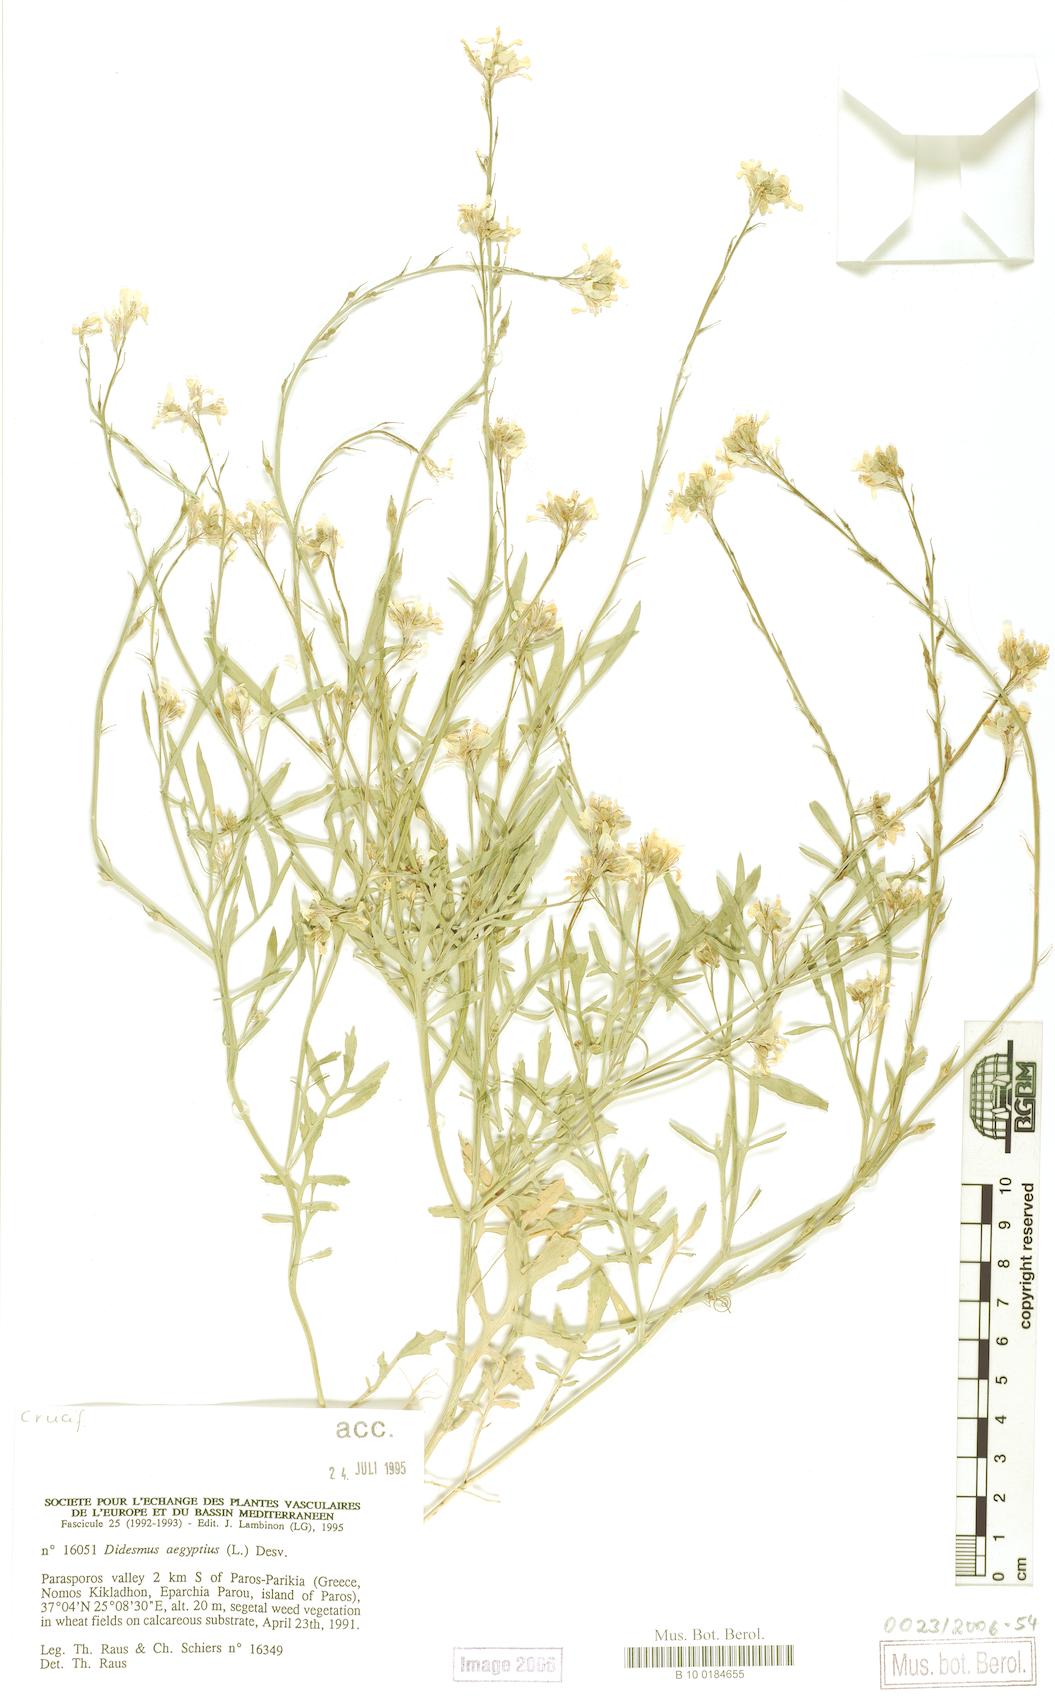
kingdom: Plantae
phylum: Tracheophyta
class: Magnoliopsida
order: Brassicales
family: Brassicaceae
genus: Didesmus
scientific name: Didesmus aegyptius
